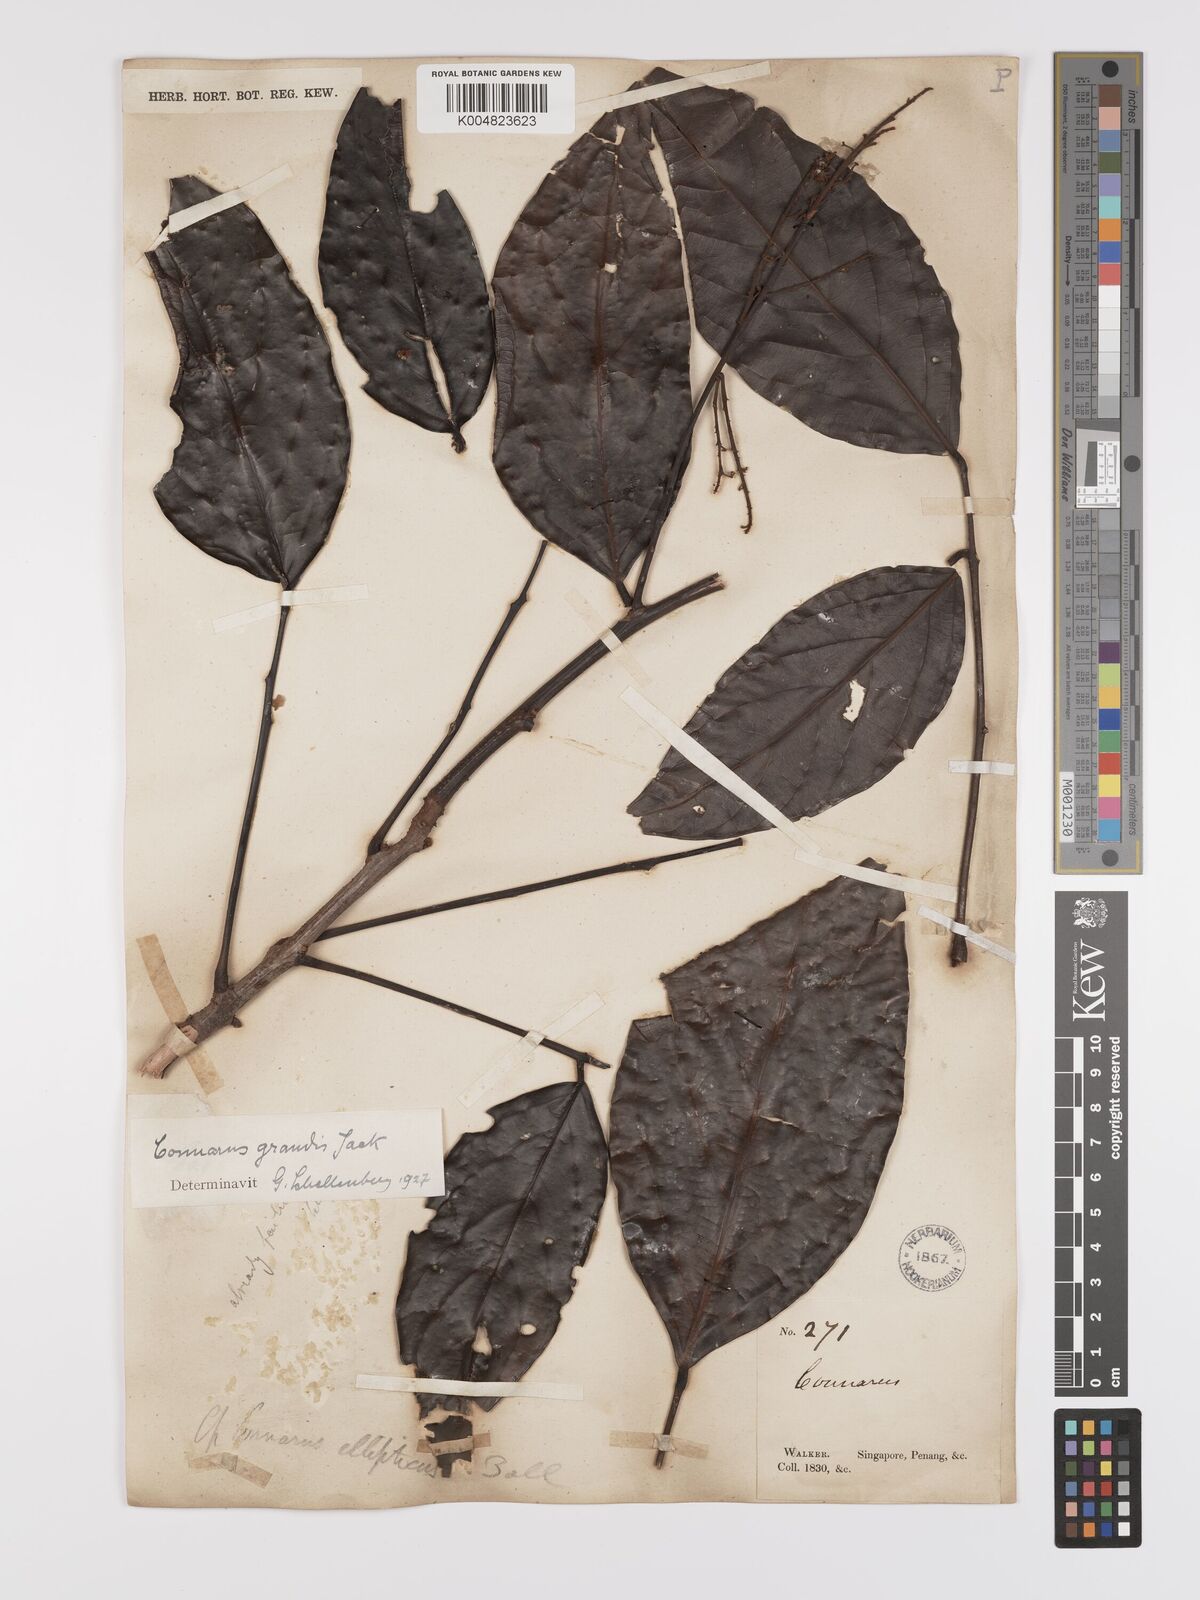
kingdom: Plantae
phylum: Tracheophyta
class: Magnoliopsida
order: Oxalidales
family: Connaraceae
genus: Connarus
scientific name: Connarus grandis
